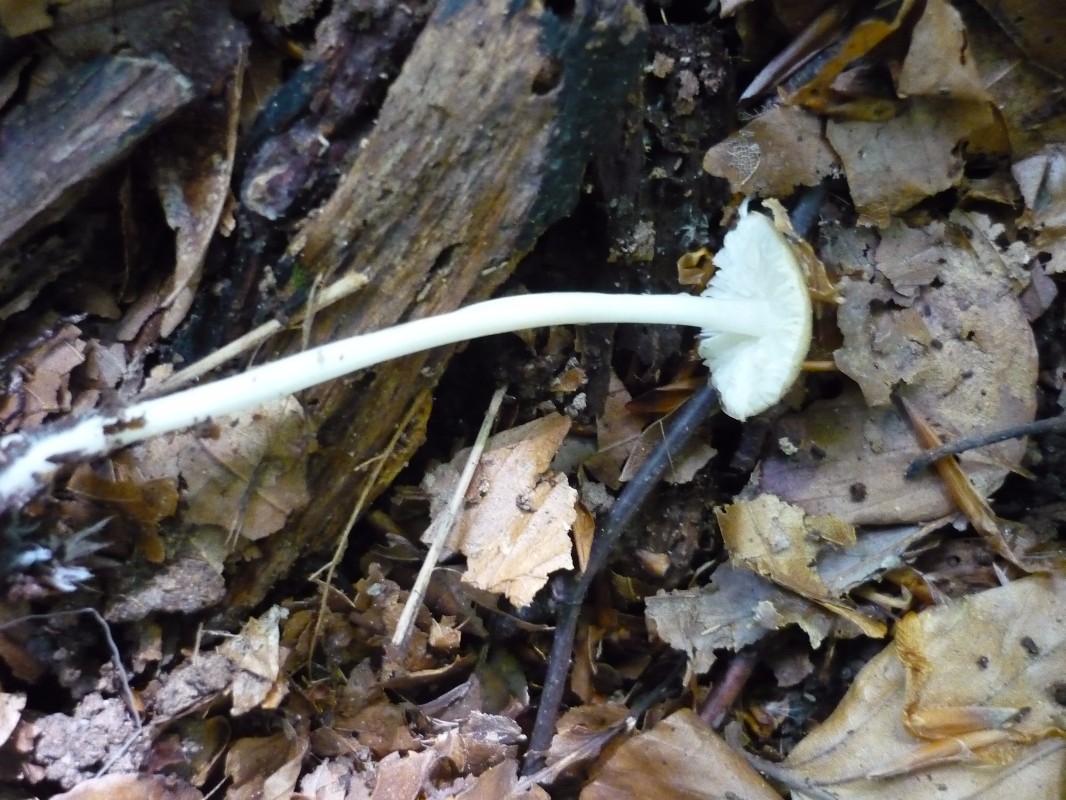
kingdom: Fungi
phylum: Basidiomycota
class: Agaricomycetes
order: Agaricales
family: Porotheleaceae
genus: Hydropodia
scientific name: Hydropodia subalpina
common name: vår-fnugfod
